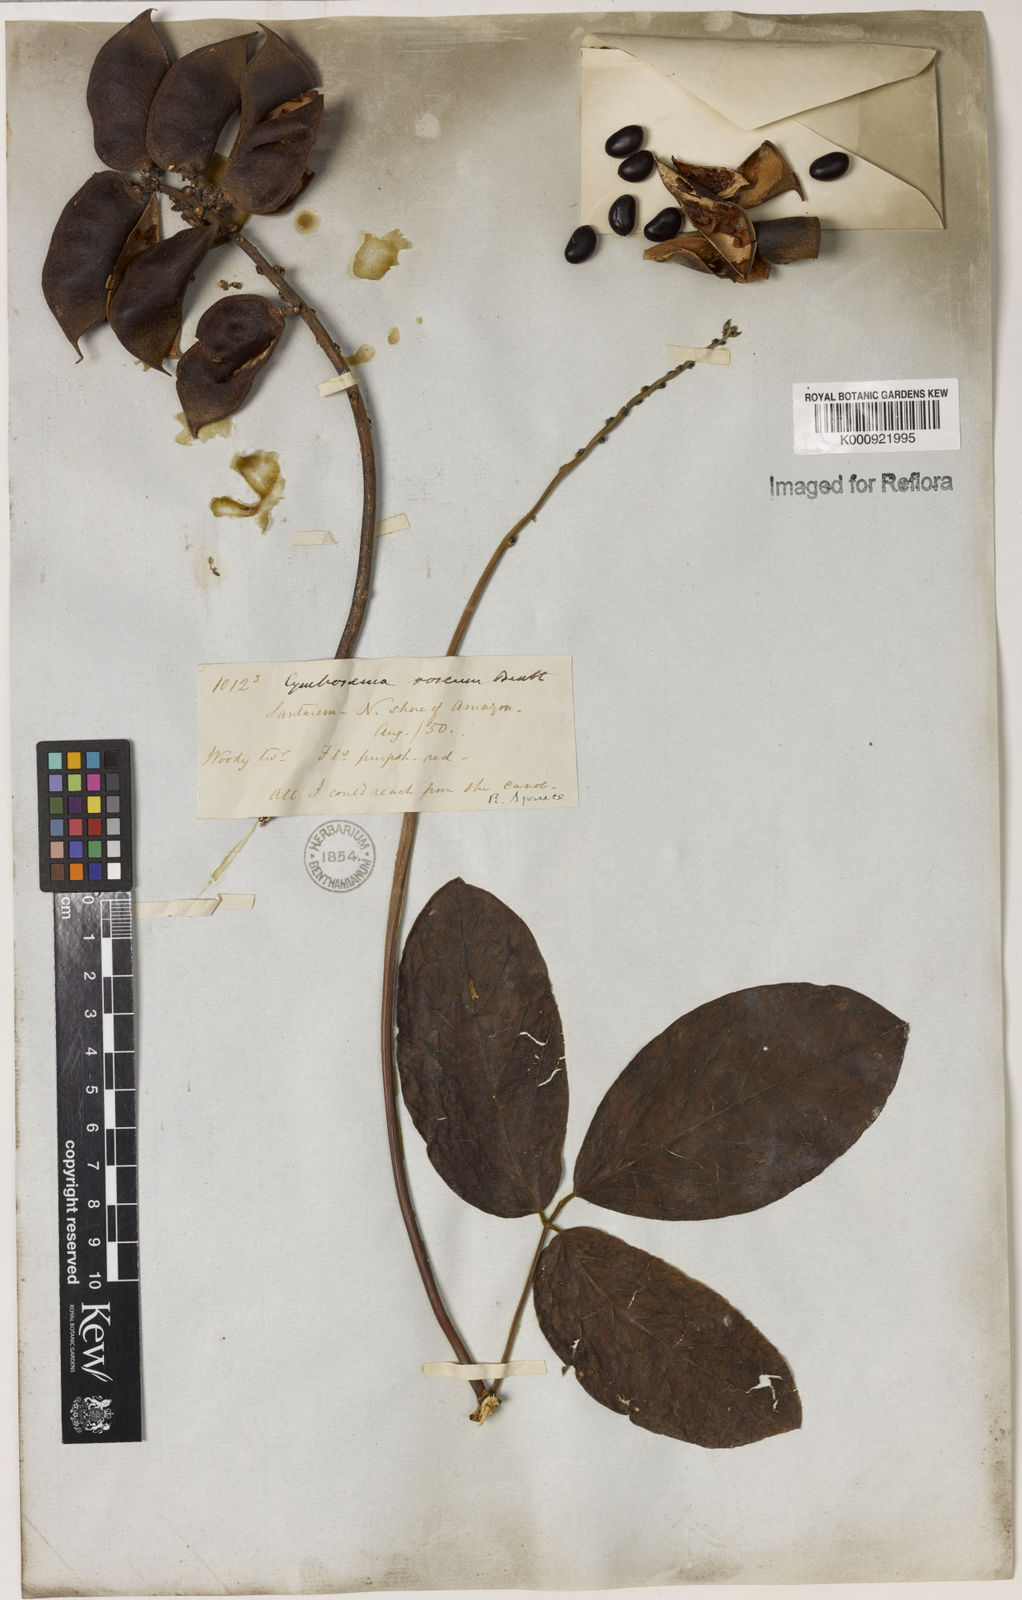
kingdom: Plantae
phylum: Tracheophyta
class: Magnoliopsida
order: Fabales
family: Fabaceae
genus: Cymbosema
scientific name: Cymbosema roseum
